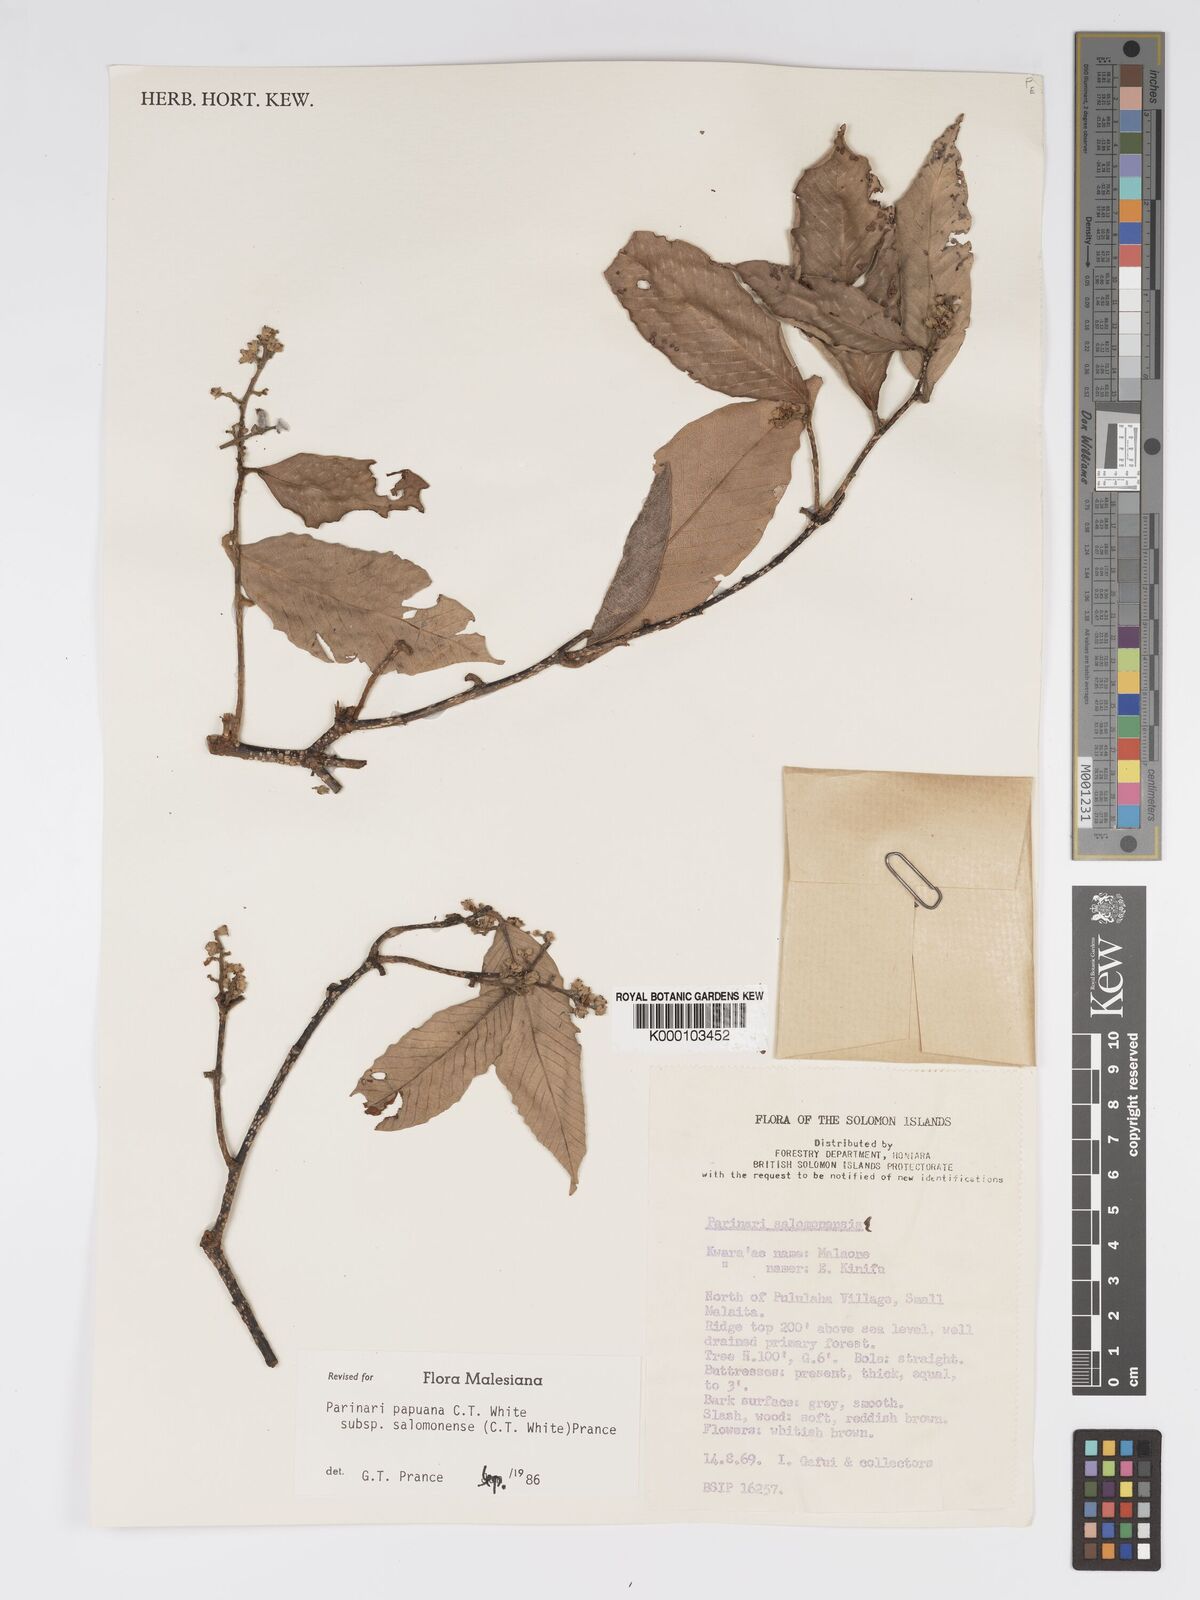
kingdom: Plantae
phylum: Tracheophyta
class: Magnoliopsida
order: Malpighiales
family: Chrysobalanaceae
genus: Parinari
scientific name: Parinari papuana
